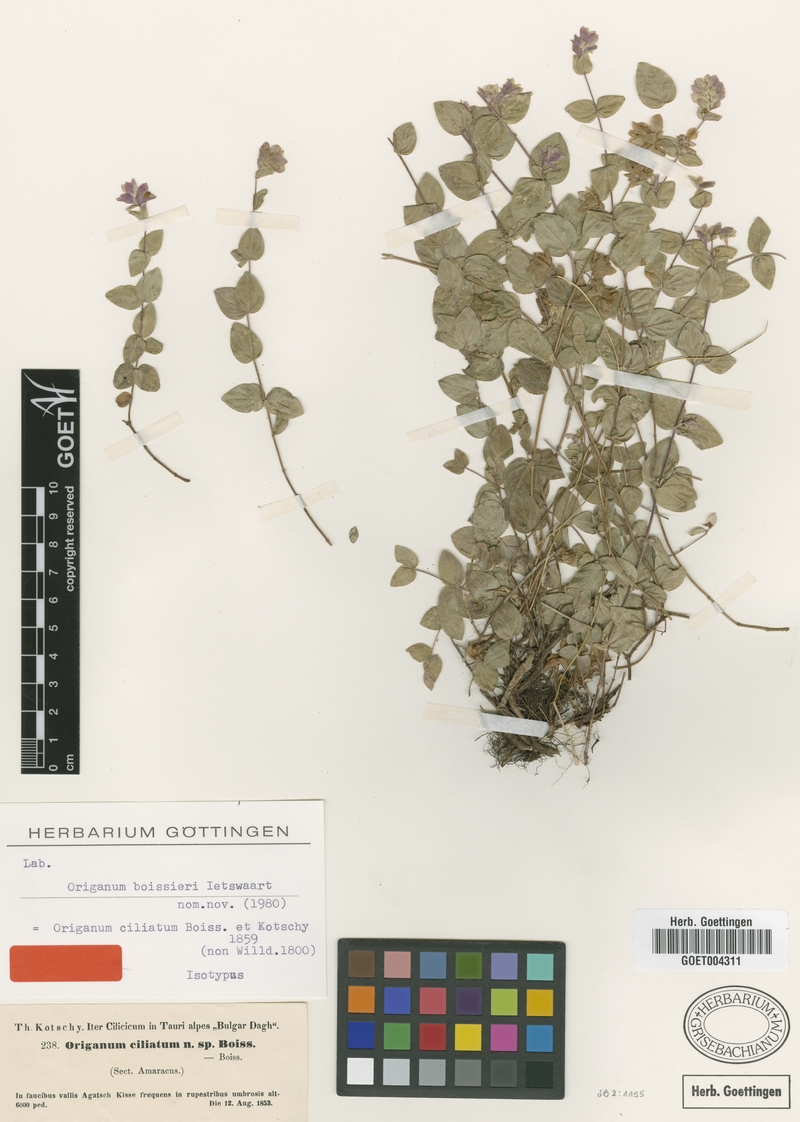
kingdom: Plantae
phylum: Tracheophyta
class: Magnoliopsida
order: Lamiales
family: Lamiaceae
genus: Origanum
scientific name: Origanum boissieri
